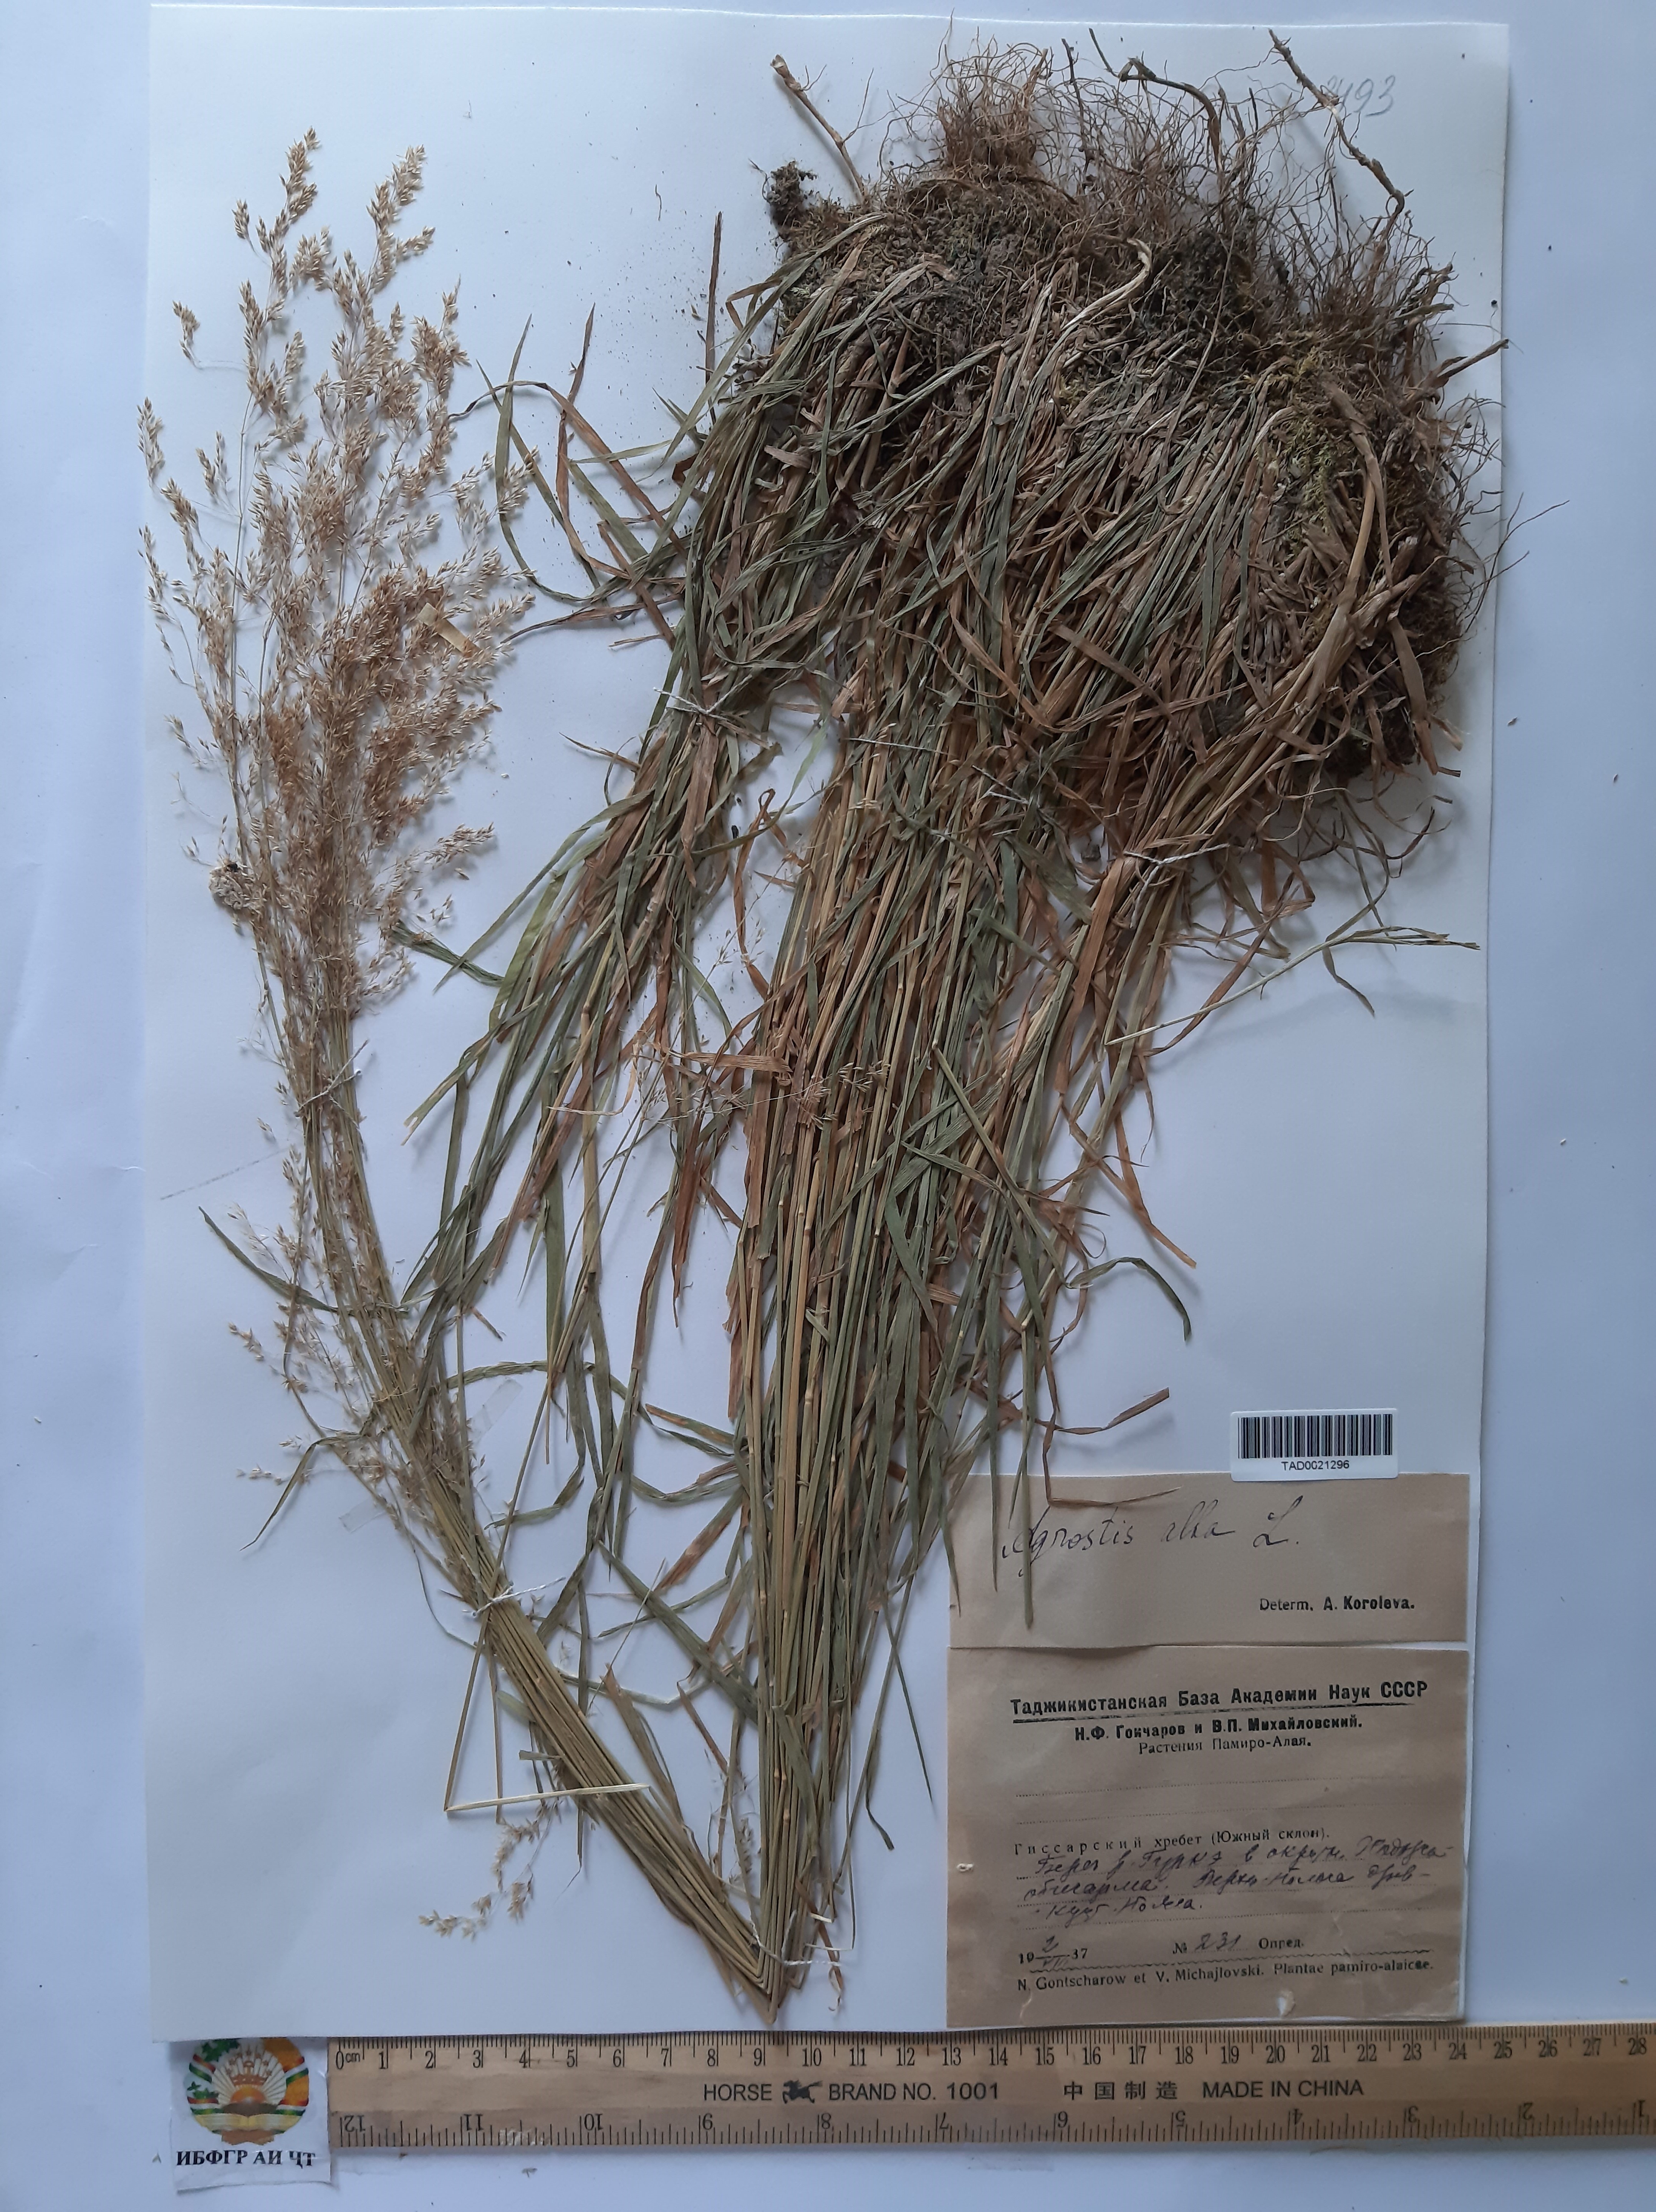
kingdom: Plantae
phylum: Tracheophyta
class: Liliopsida
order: Poales
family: Poaceae
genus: Poa
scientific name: Poa nemoralis
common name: Wood bluegrass
